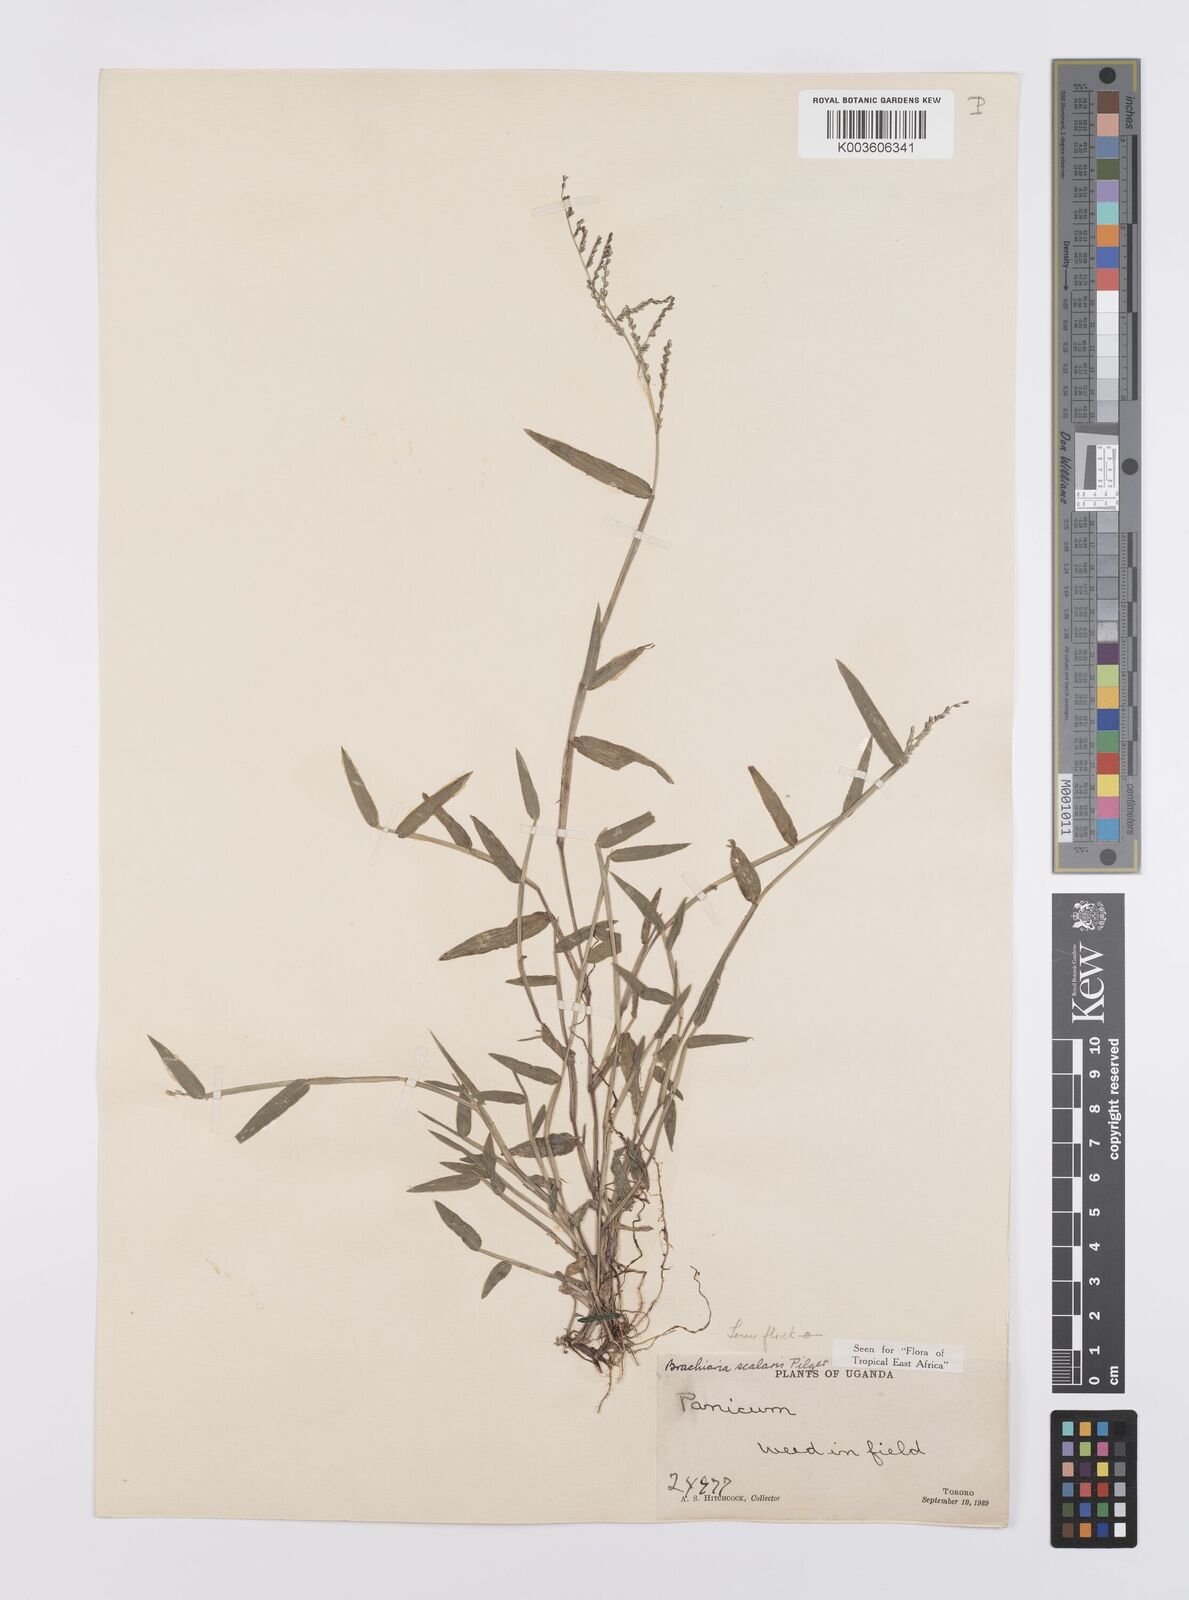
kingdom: Plantae
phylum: Tracheophyta
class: Liliopsida
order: Poales
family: Poaceae
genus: Urochloa
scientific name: Urochloa comata
